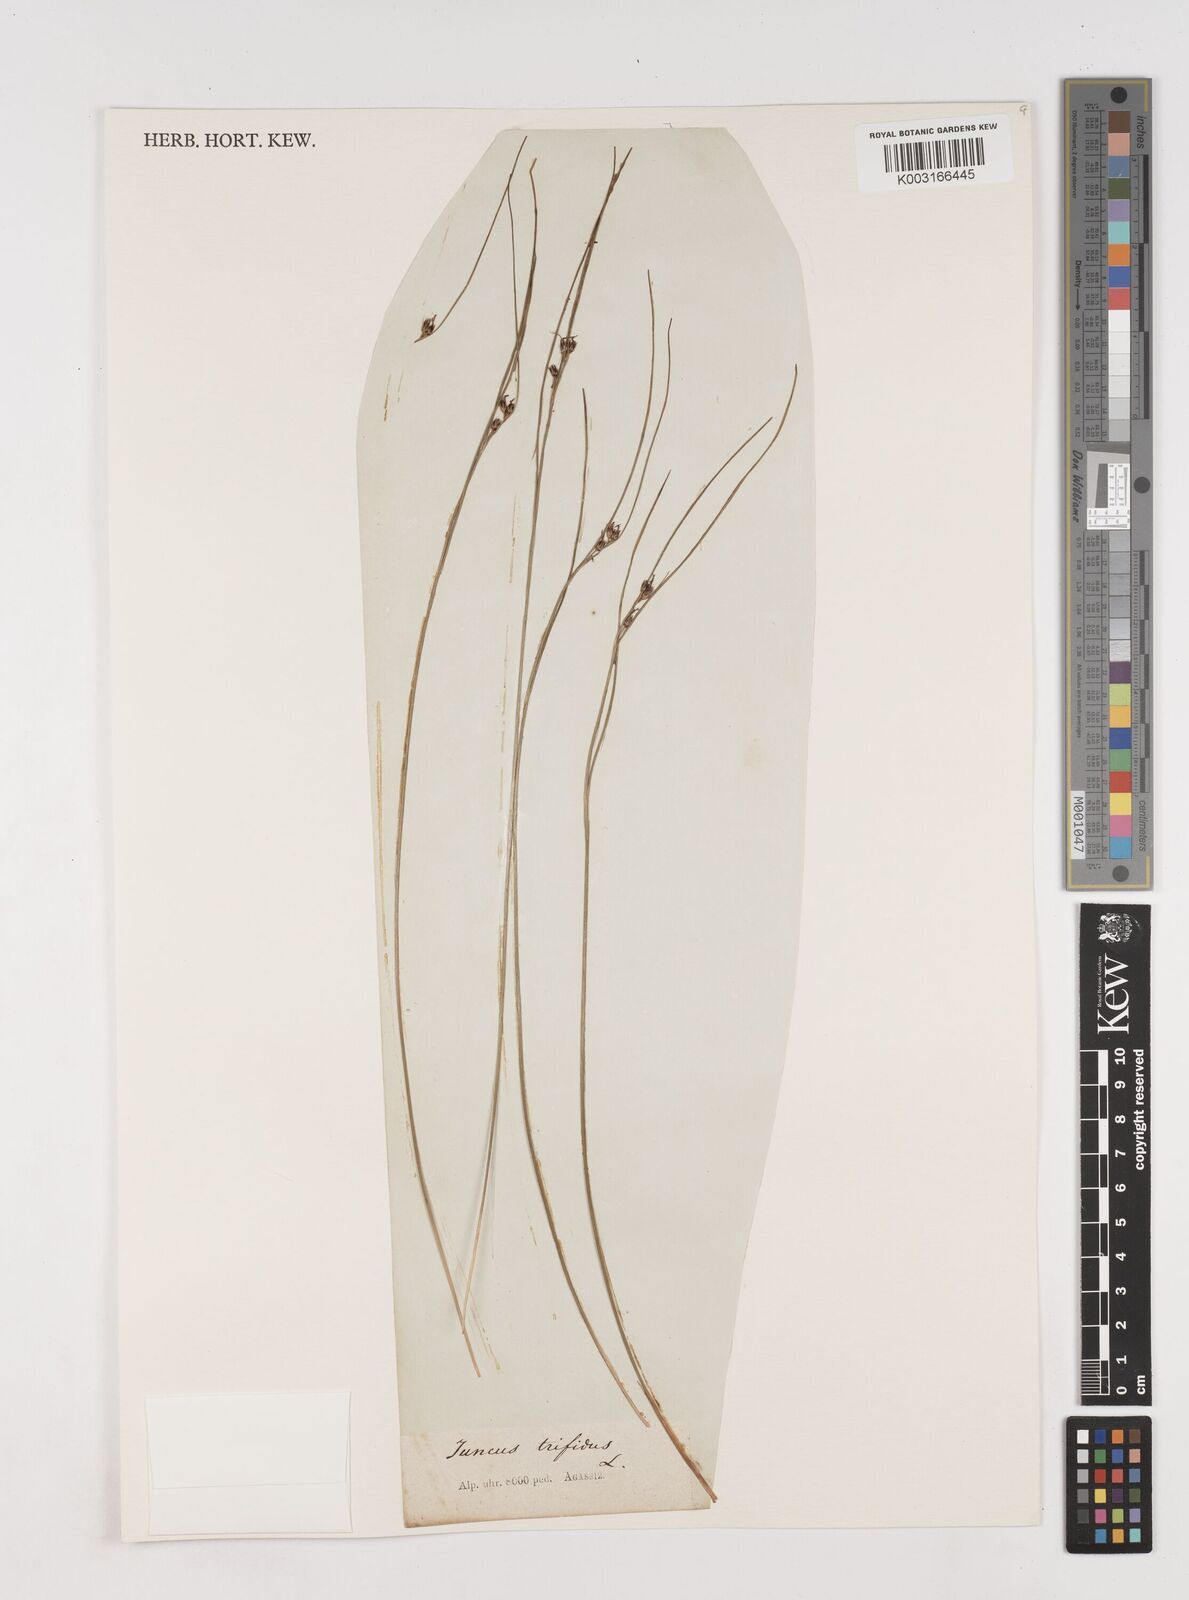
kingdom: Plantae
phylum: Tracheophyta
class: Liliopsida
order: Poales
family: Juncaceae
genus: Oreojuncus
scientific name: Oreojuncus trifidus
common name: Highland rush
